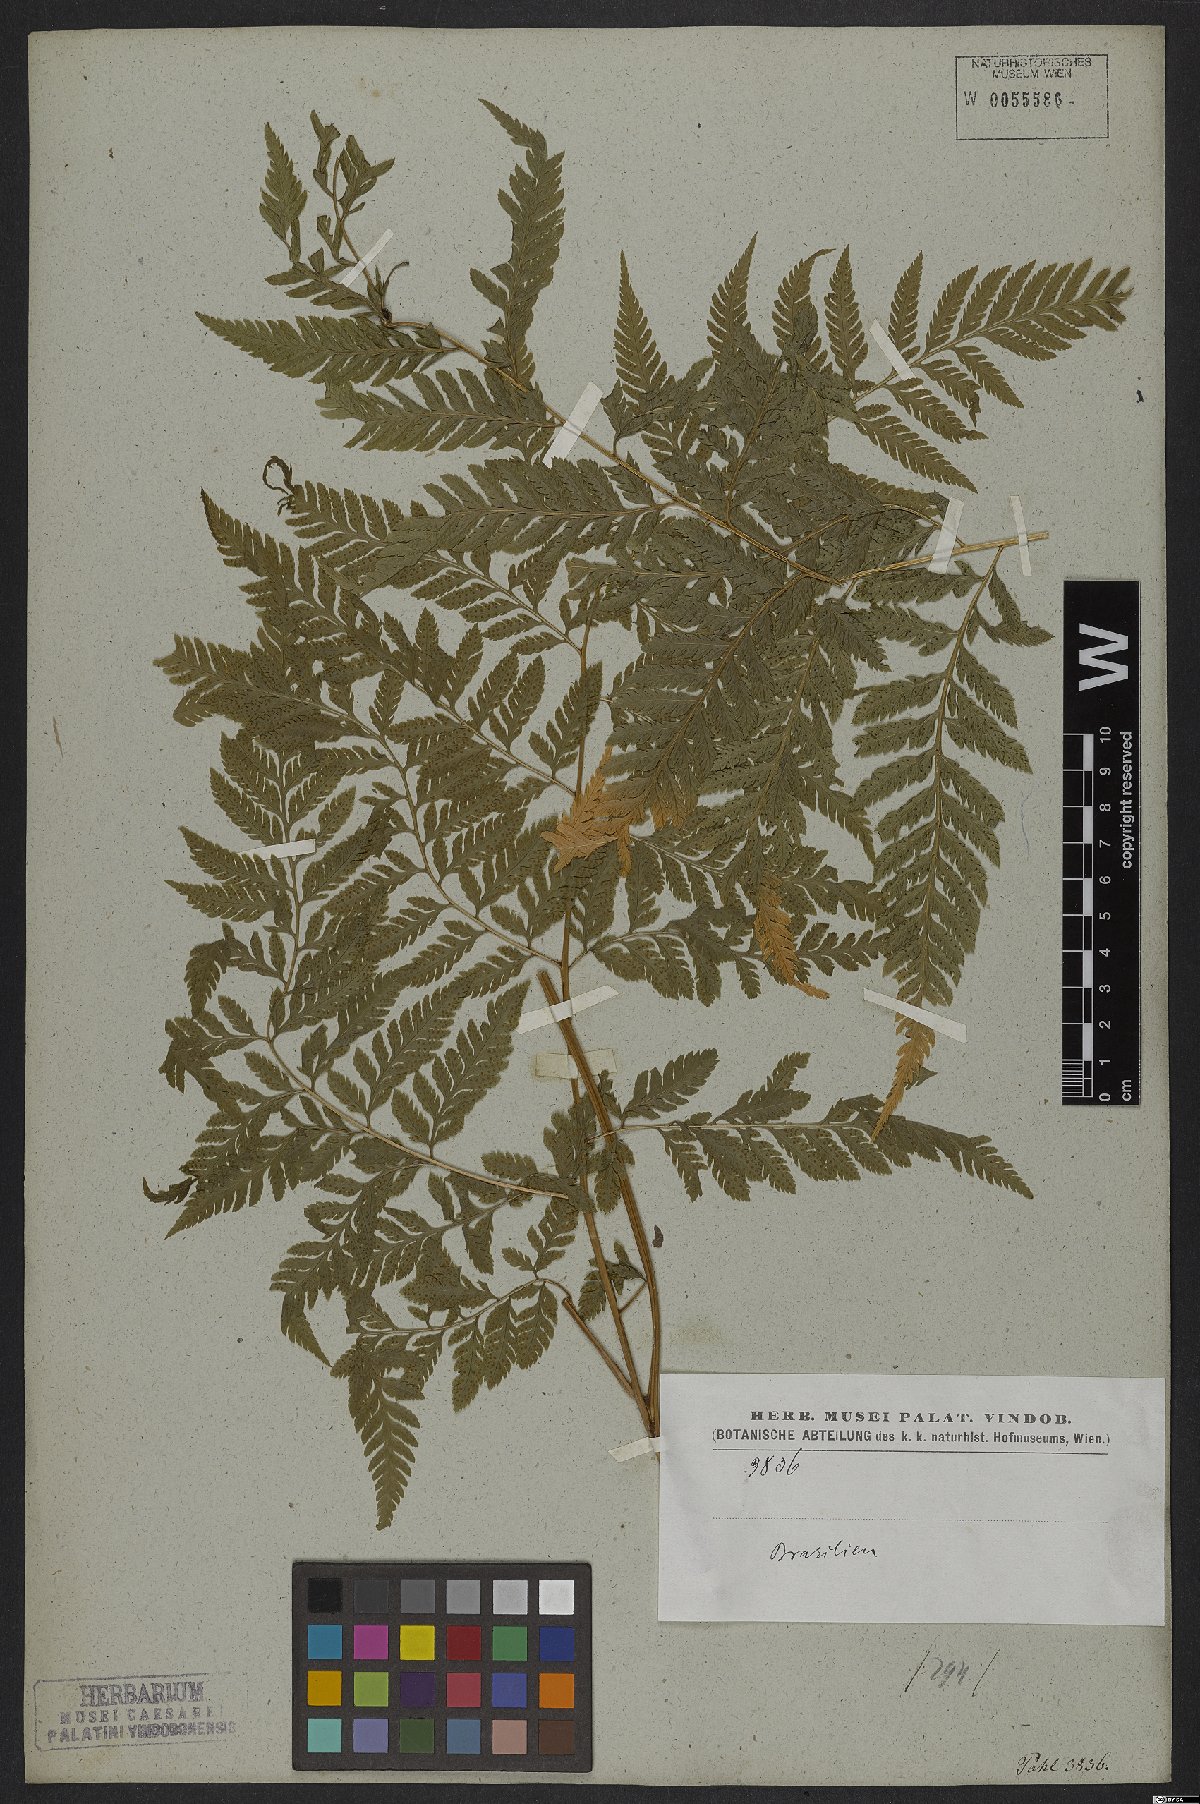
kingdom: Plantae
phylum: Tracheophyta
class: Polypodiopsida
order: Polypodiales
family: Dryopteridaceae
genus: Parapolystichum
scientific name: Parapolystichum effusum
